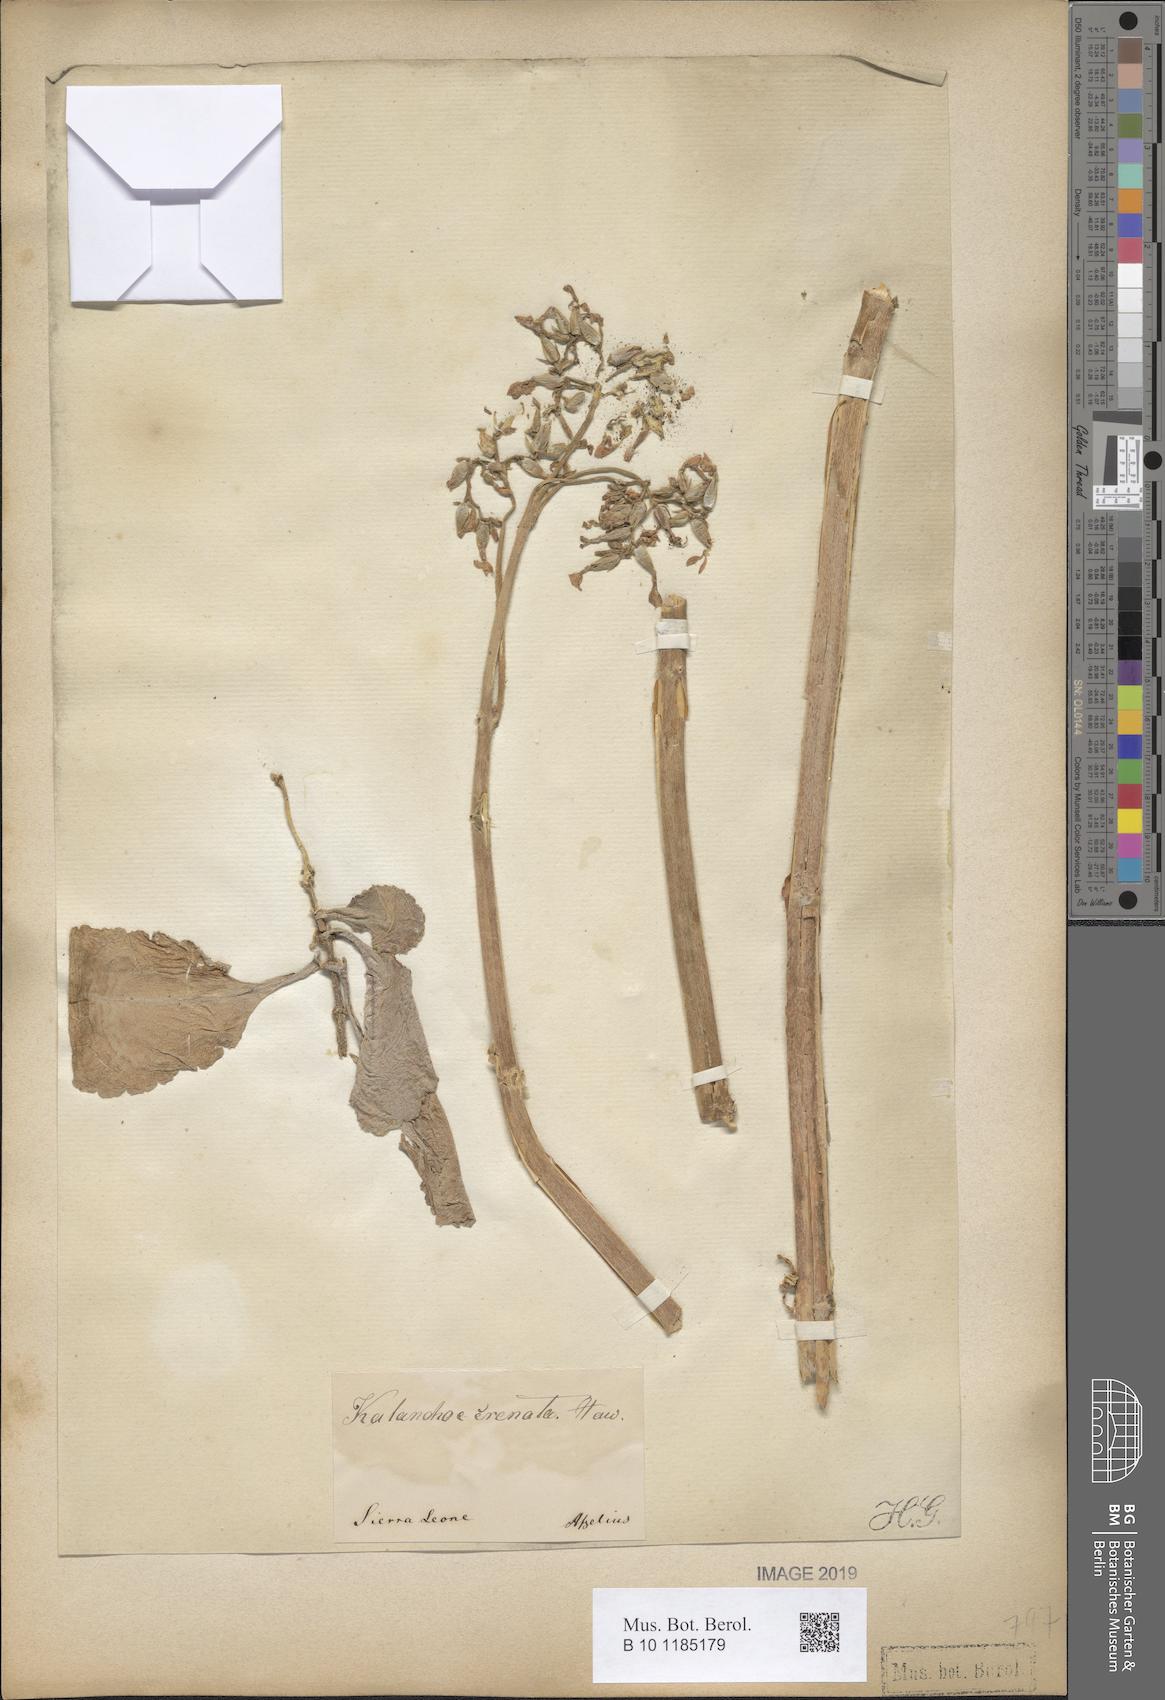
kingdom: Plantae
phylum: Tracheophyta
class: Magnoliopsida
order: Saxifragales
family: Crassulaceae
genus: Kalanchoe
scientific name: Kalanchoe crenata
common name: Neverdie
